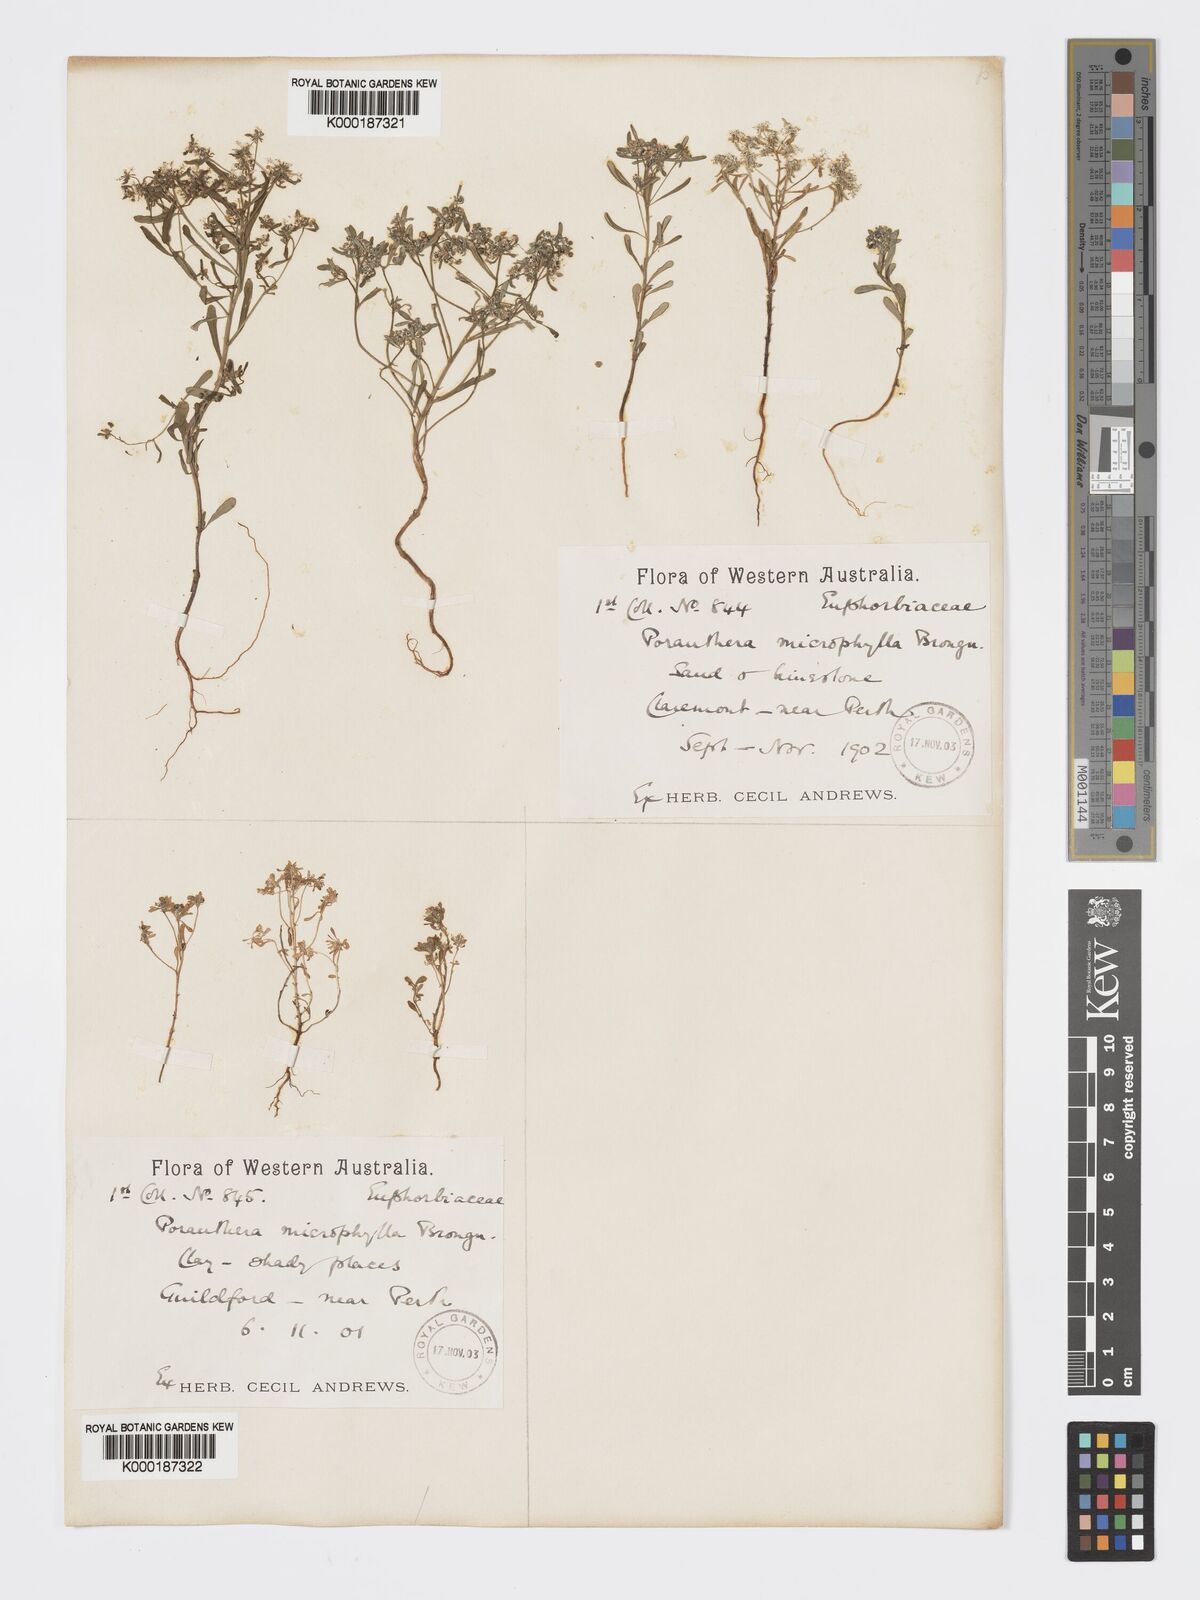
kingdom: Plantae
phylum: Tracheophyta
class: Magnoliopsida
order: Malpighiales
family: Phyllanthaceae
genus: Poranthera
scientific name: Poranthera microphylla
